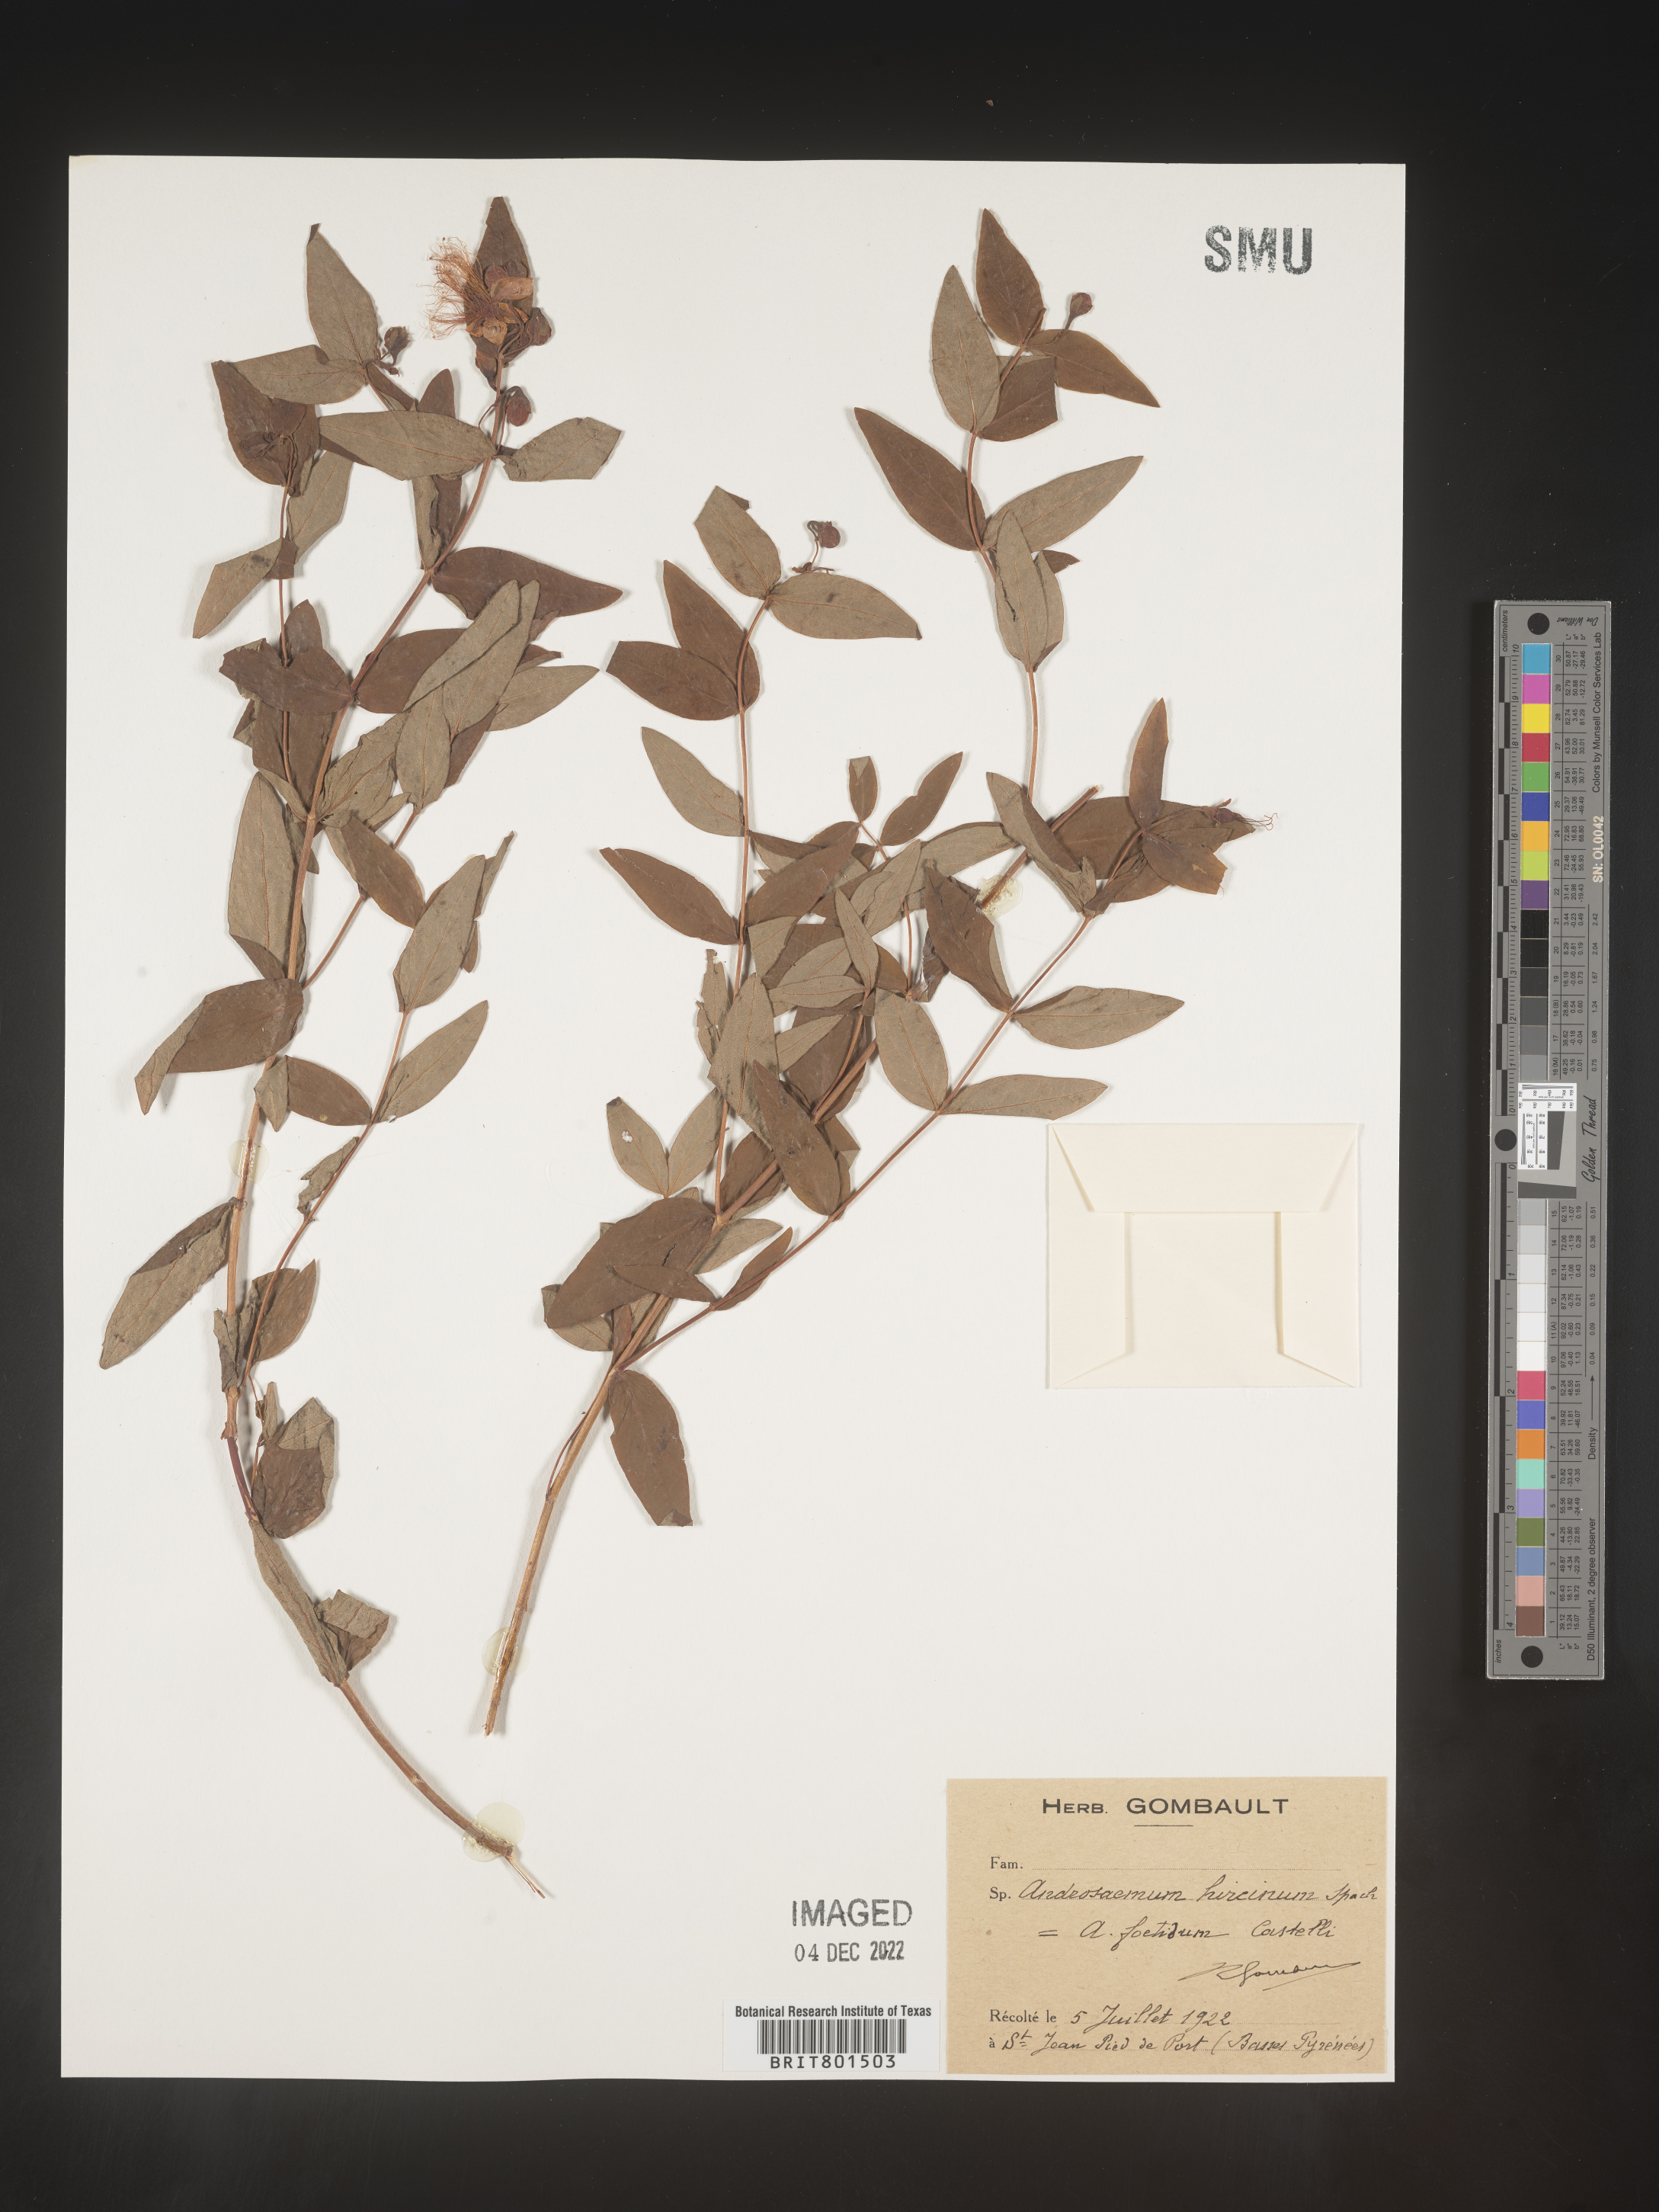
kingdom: Plantae
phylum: Tracheophyta
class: Magnoliopsida
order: Malpighiales
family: Hypericaceae
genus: Hypericum
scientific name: Hypericum
